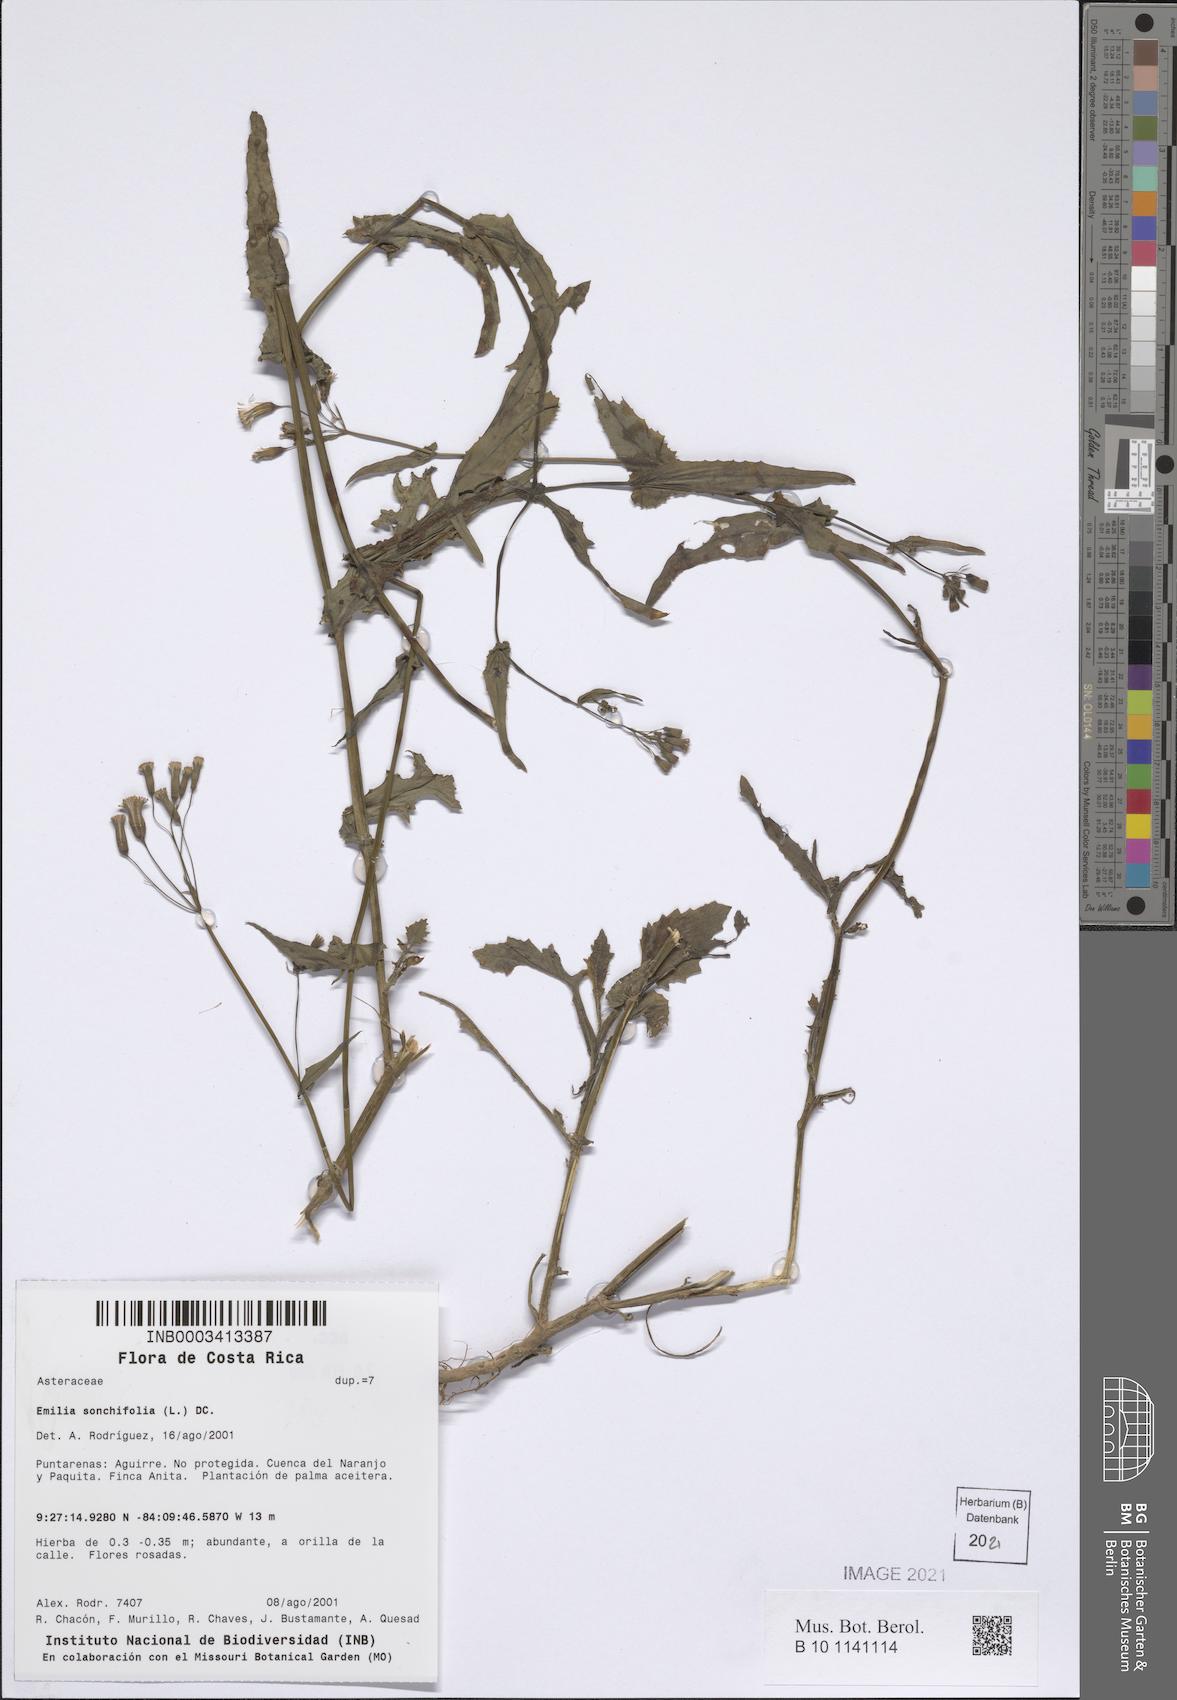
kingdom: Plantae
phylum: Tracheophyta
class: Magnoliopsida
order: Asterales
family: Asteraceae
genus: Emilia
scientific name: Emilia sonchifolia
